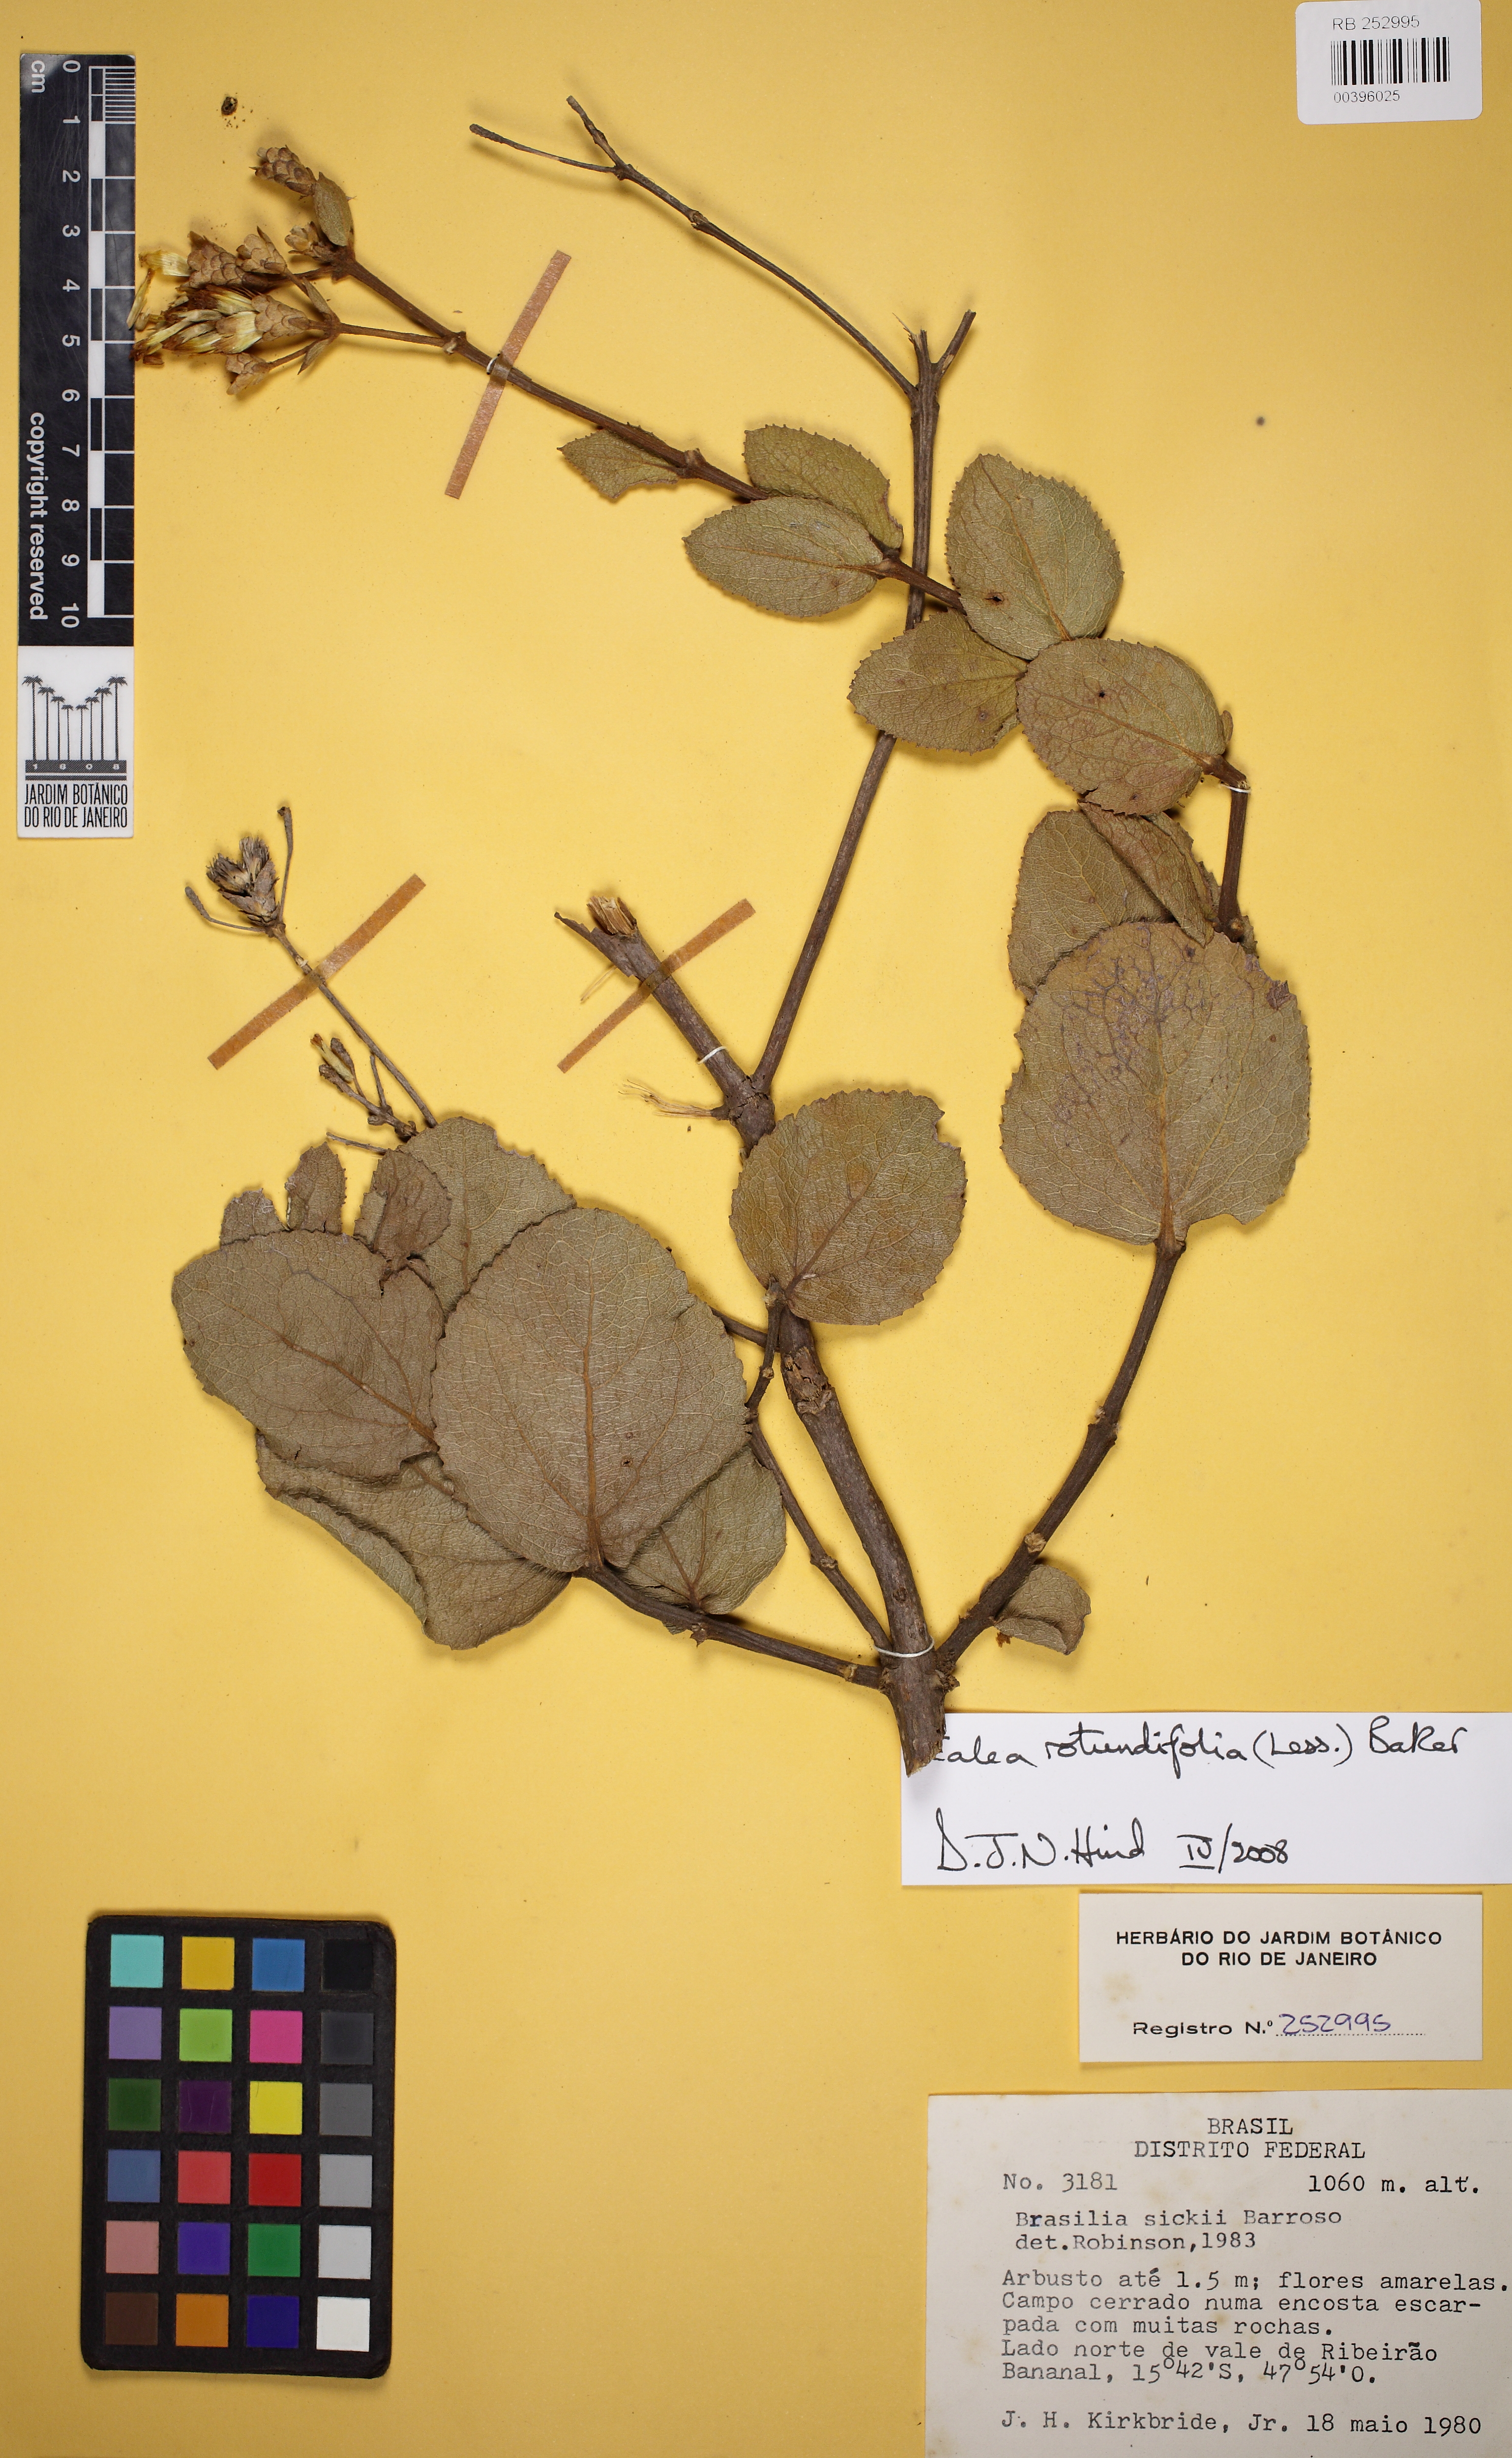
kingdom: Plantae
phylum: Tracheophyta
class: Magnoliopsida
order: Asterales
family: Asteraceae
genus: Calea
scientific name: Calea sickii
